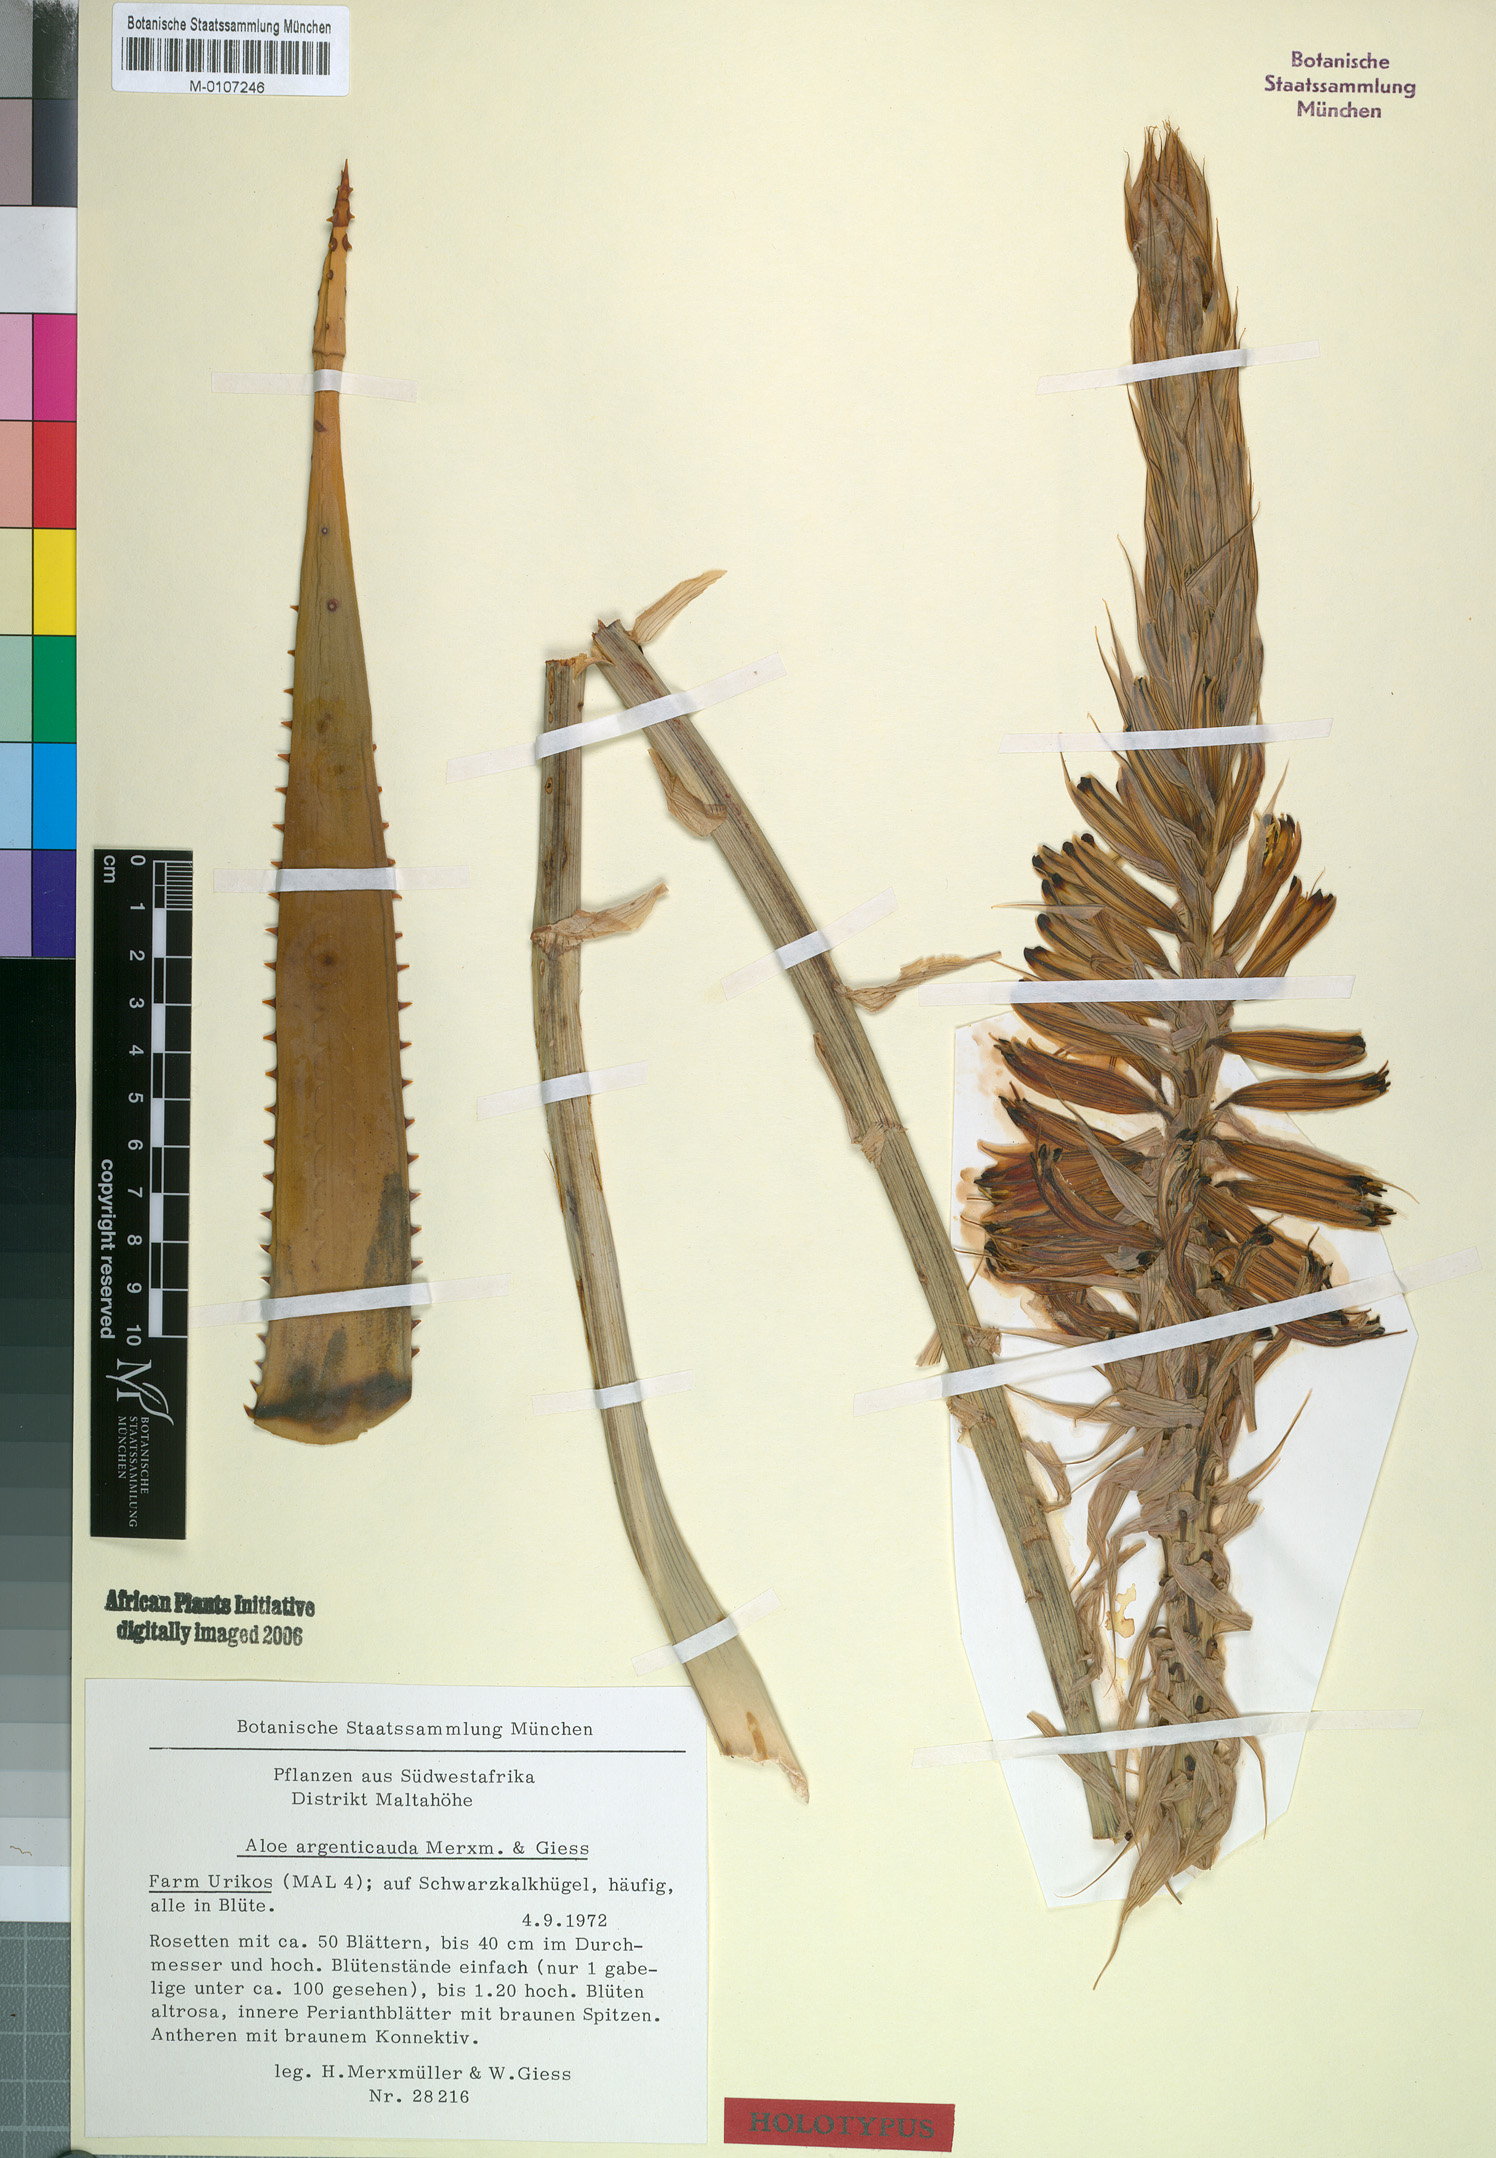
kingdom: Plantae
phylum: Tracheophyta
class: Liliopsida
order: Asparagales
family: Asphodelaceae
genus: Aloe
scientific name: Aloe argenticauda
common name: Silver-tailed aloe
